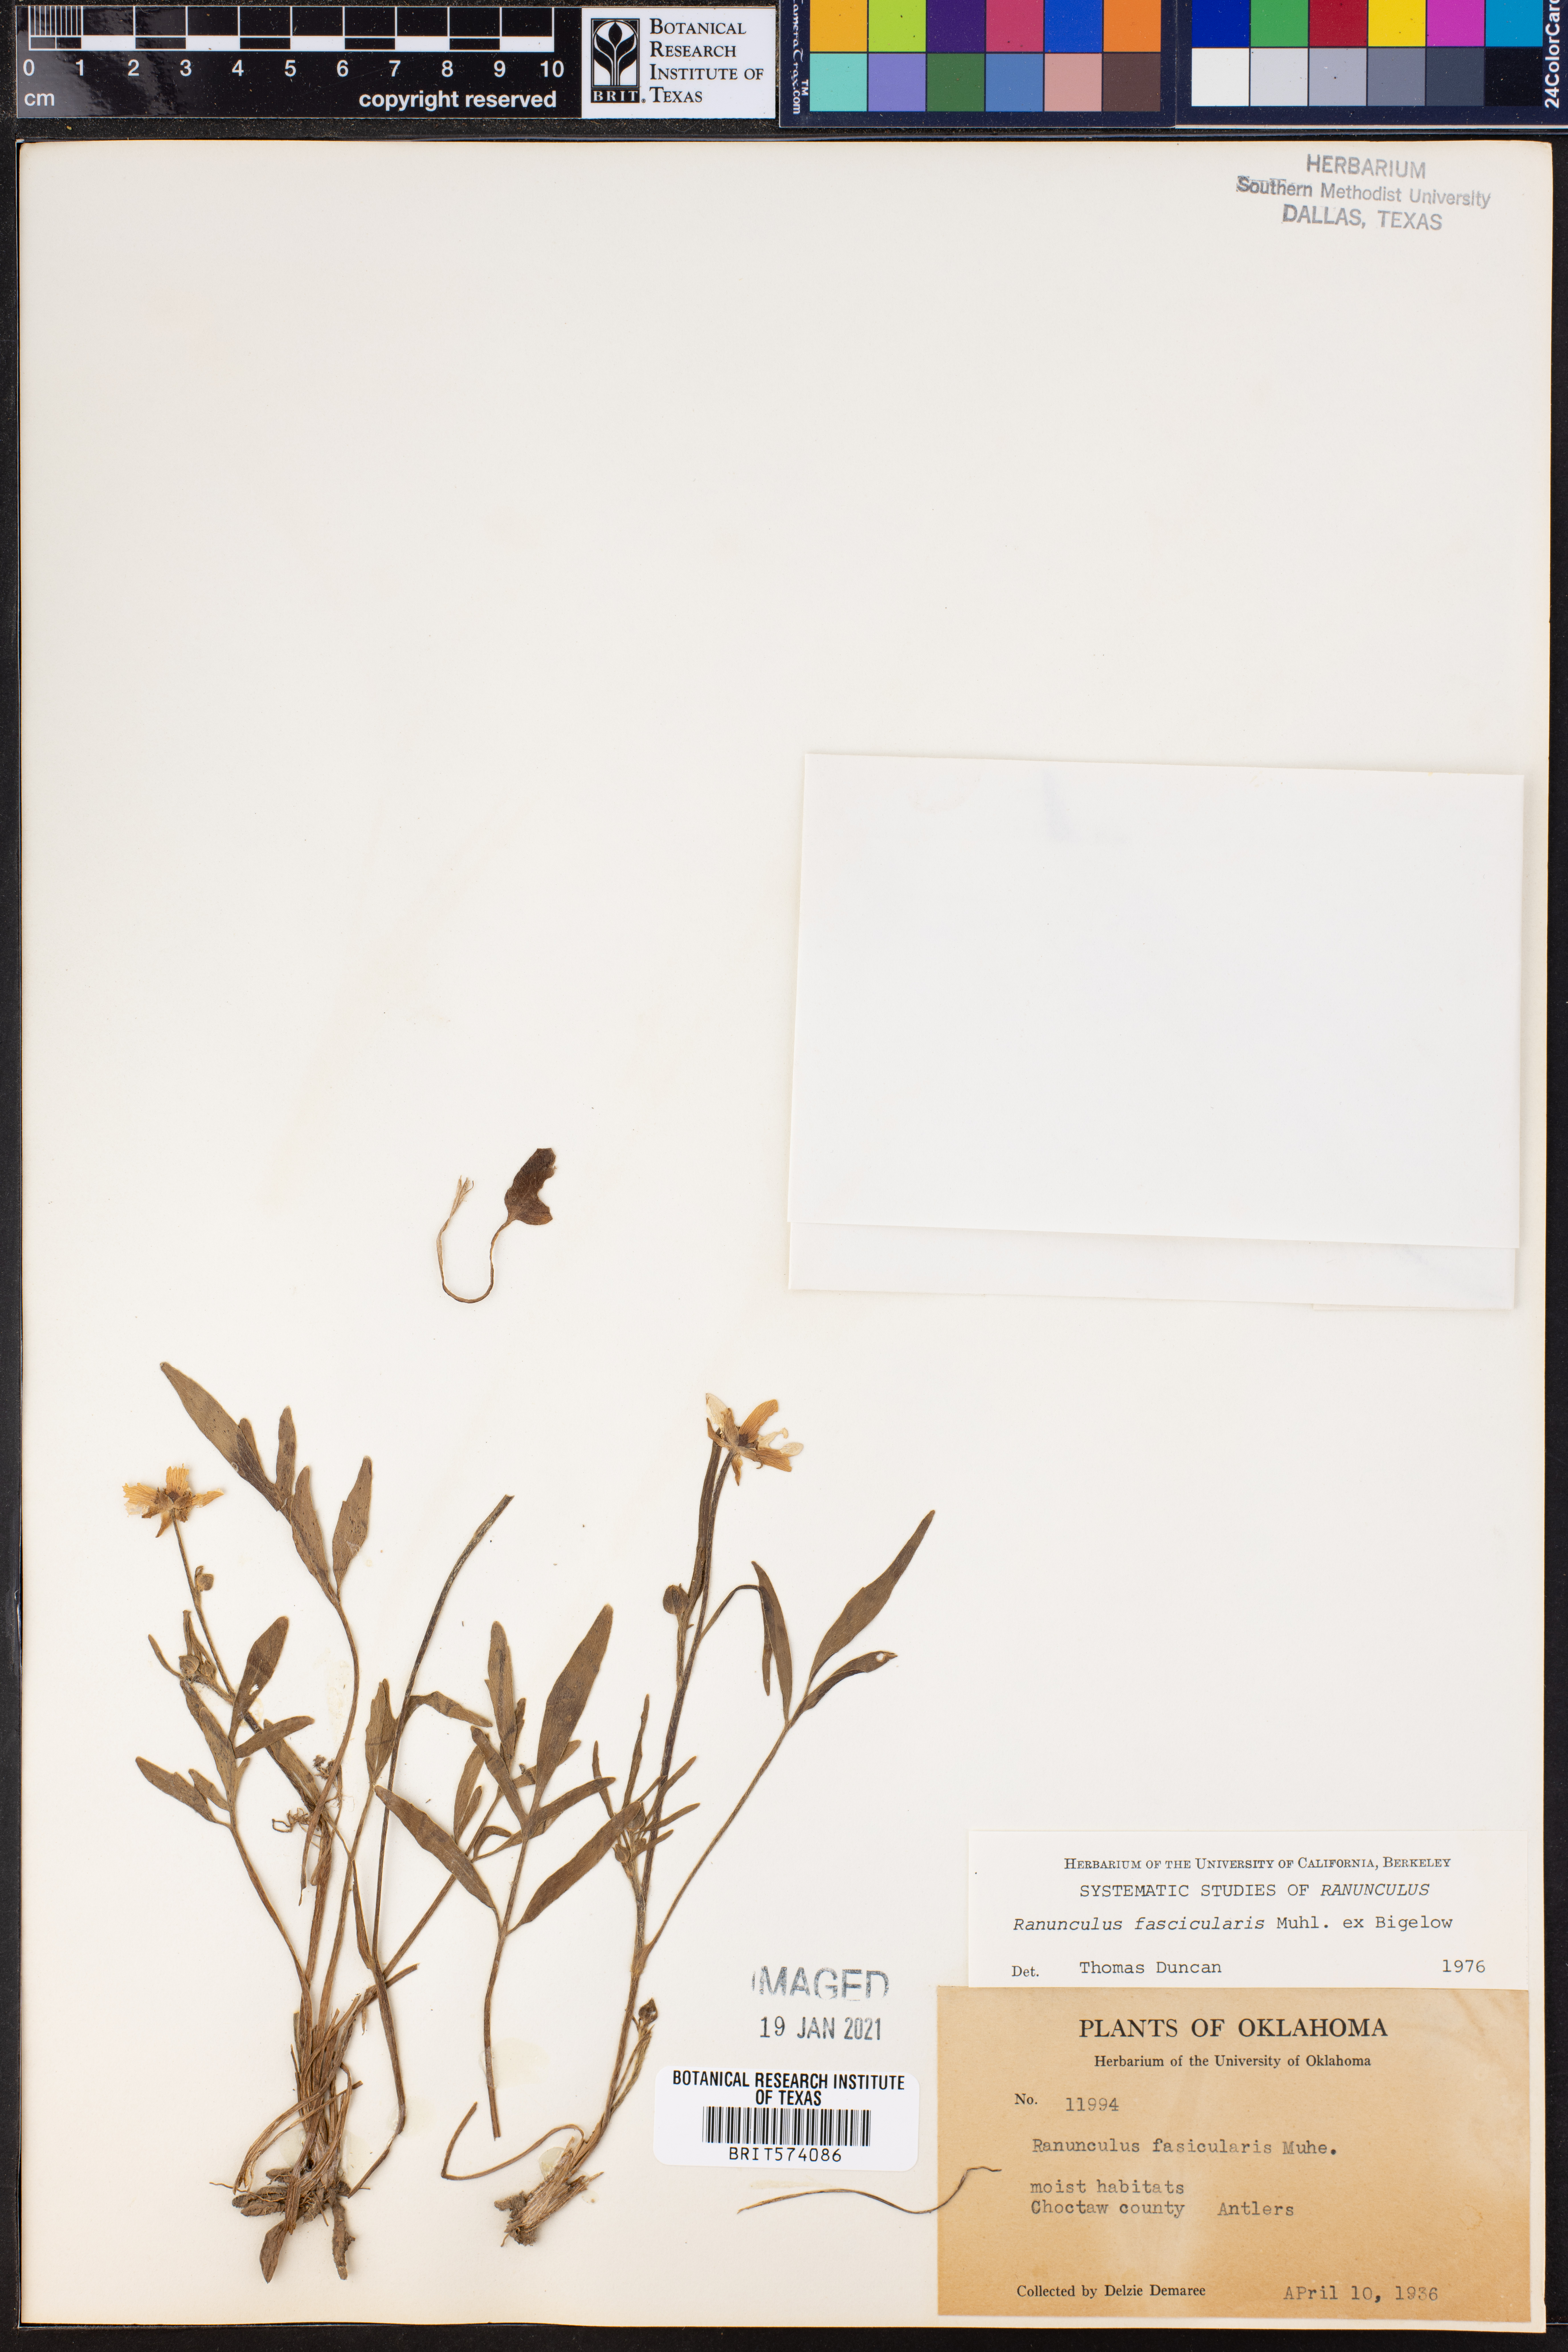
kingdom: Plantae
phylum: Tracheophyta
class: Magnoliopsida
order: Ranunculales
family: Ranunculaceae
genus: Ranunculus
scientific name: Ranunculus fascicularis
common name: Early buttercup
